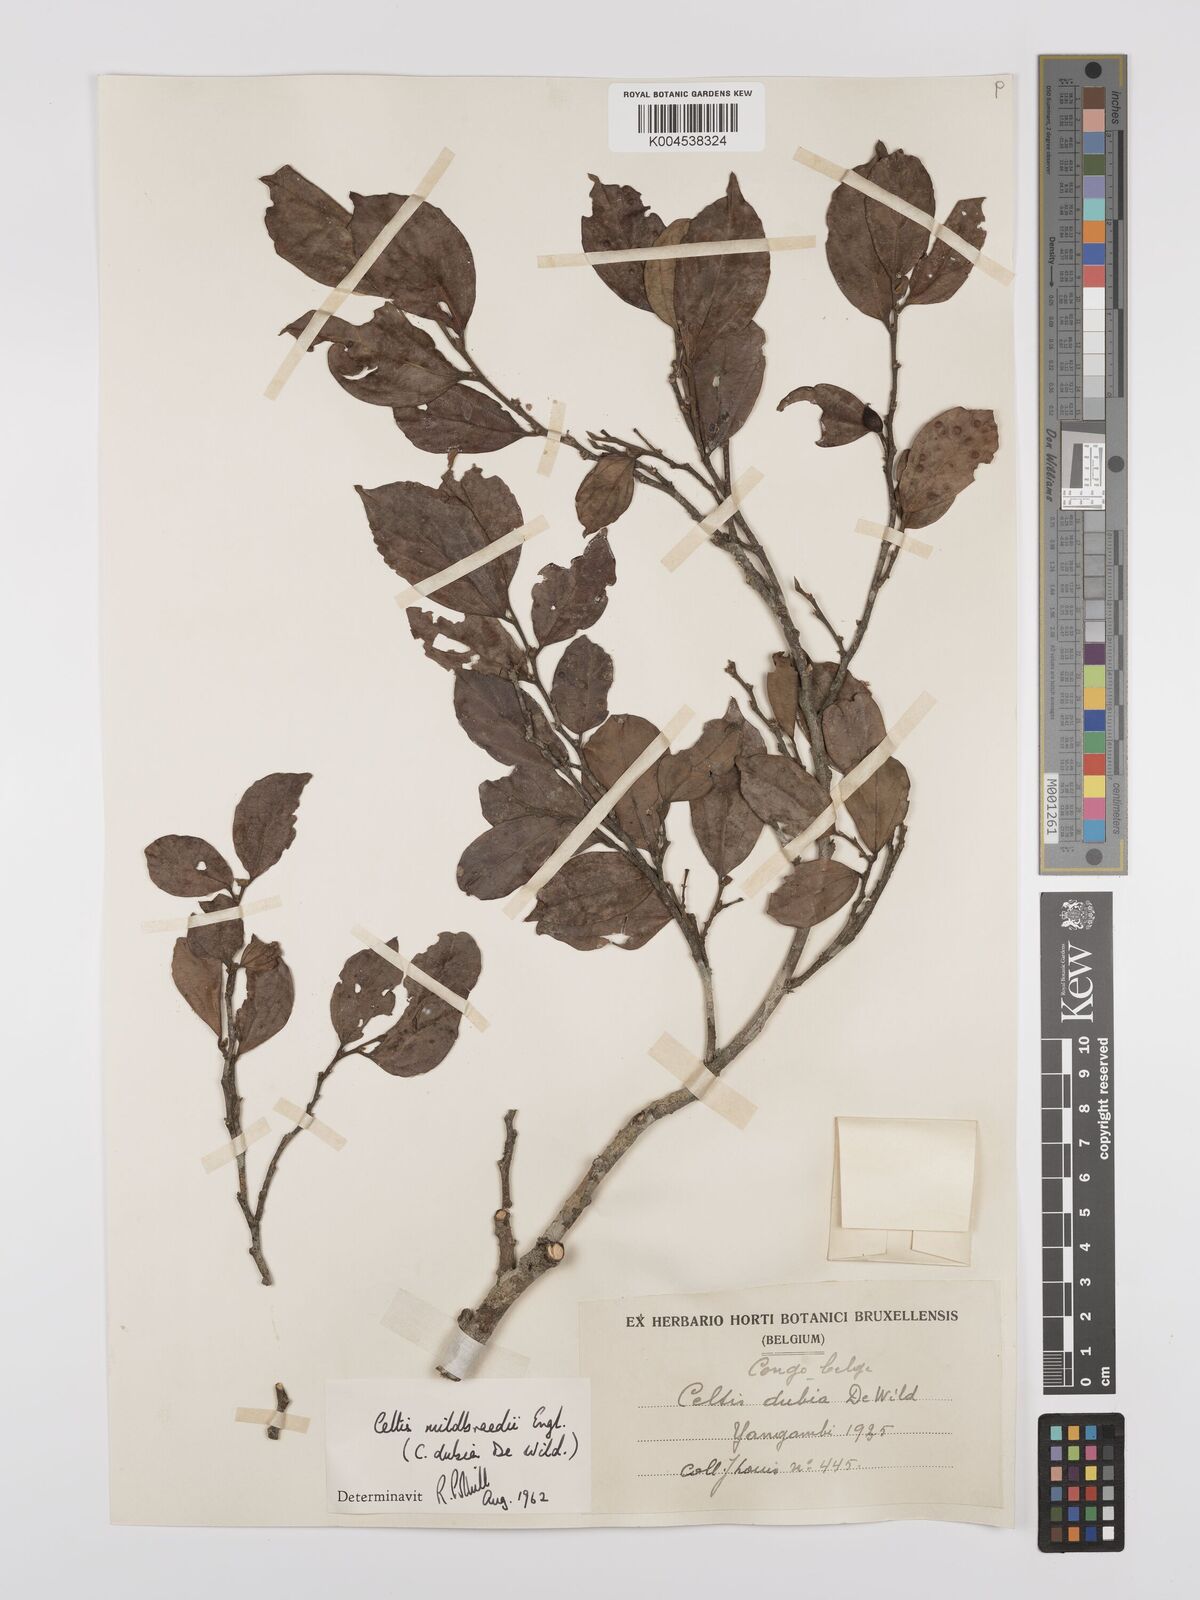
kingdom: Plantae
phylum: Tracheophyta
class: Magnoliopsida
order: Rosales
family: Cannabaceae
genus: Celtis
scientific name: Celtis mildbraedii
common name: Red-fruited stinkwood
